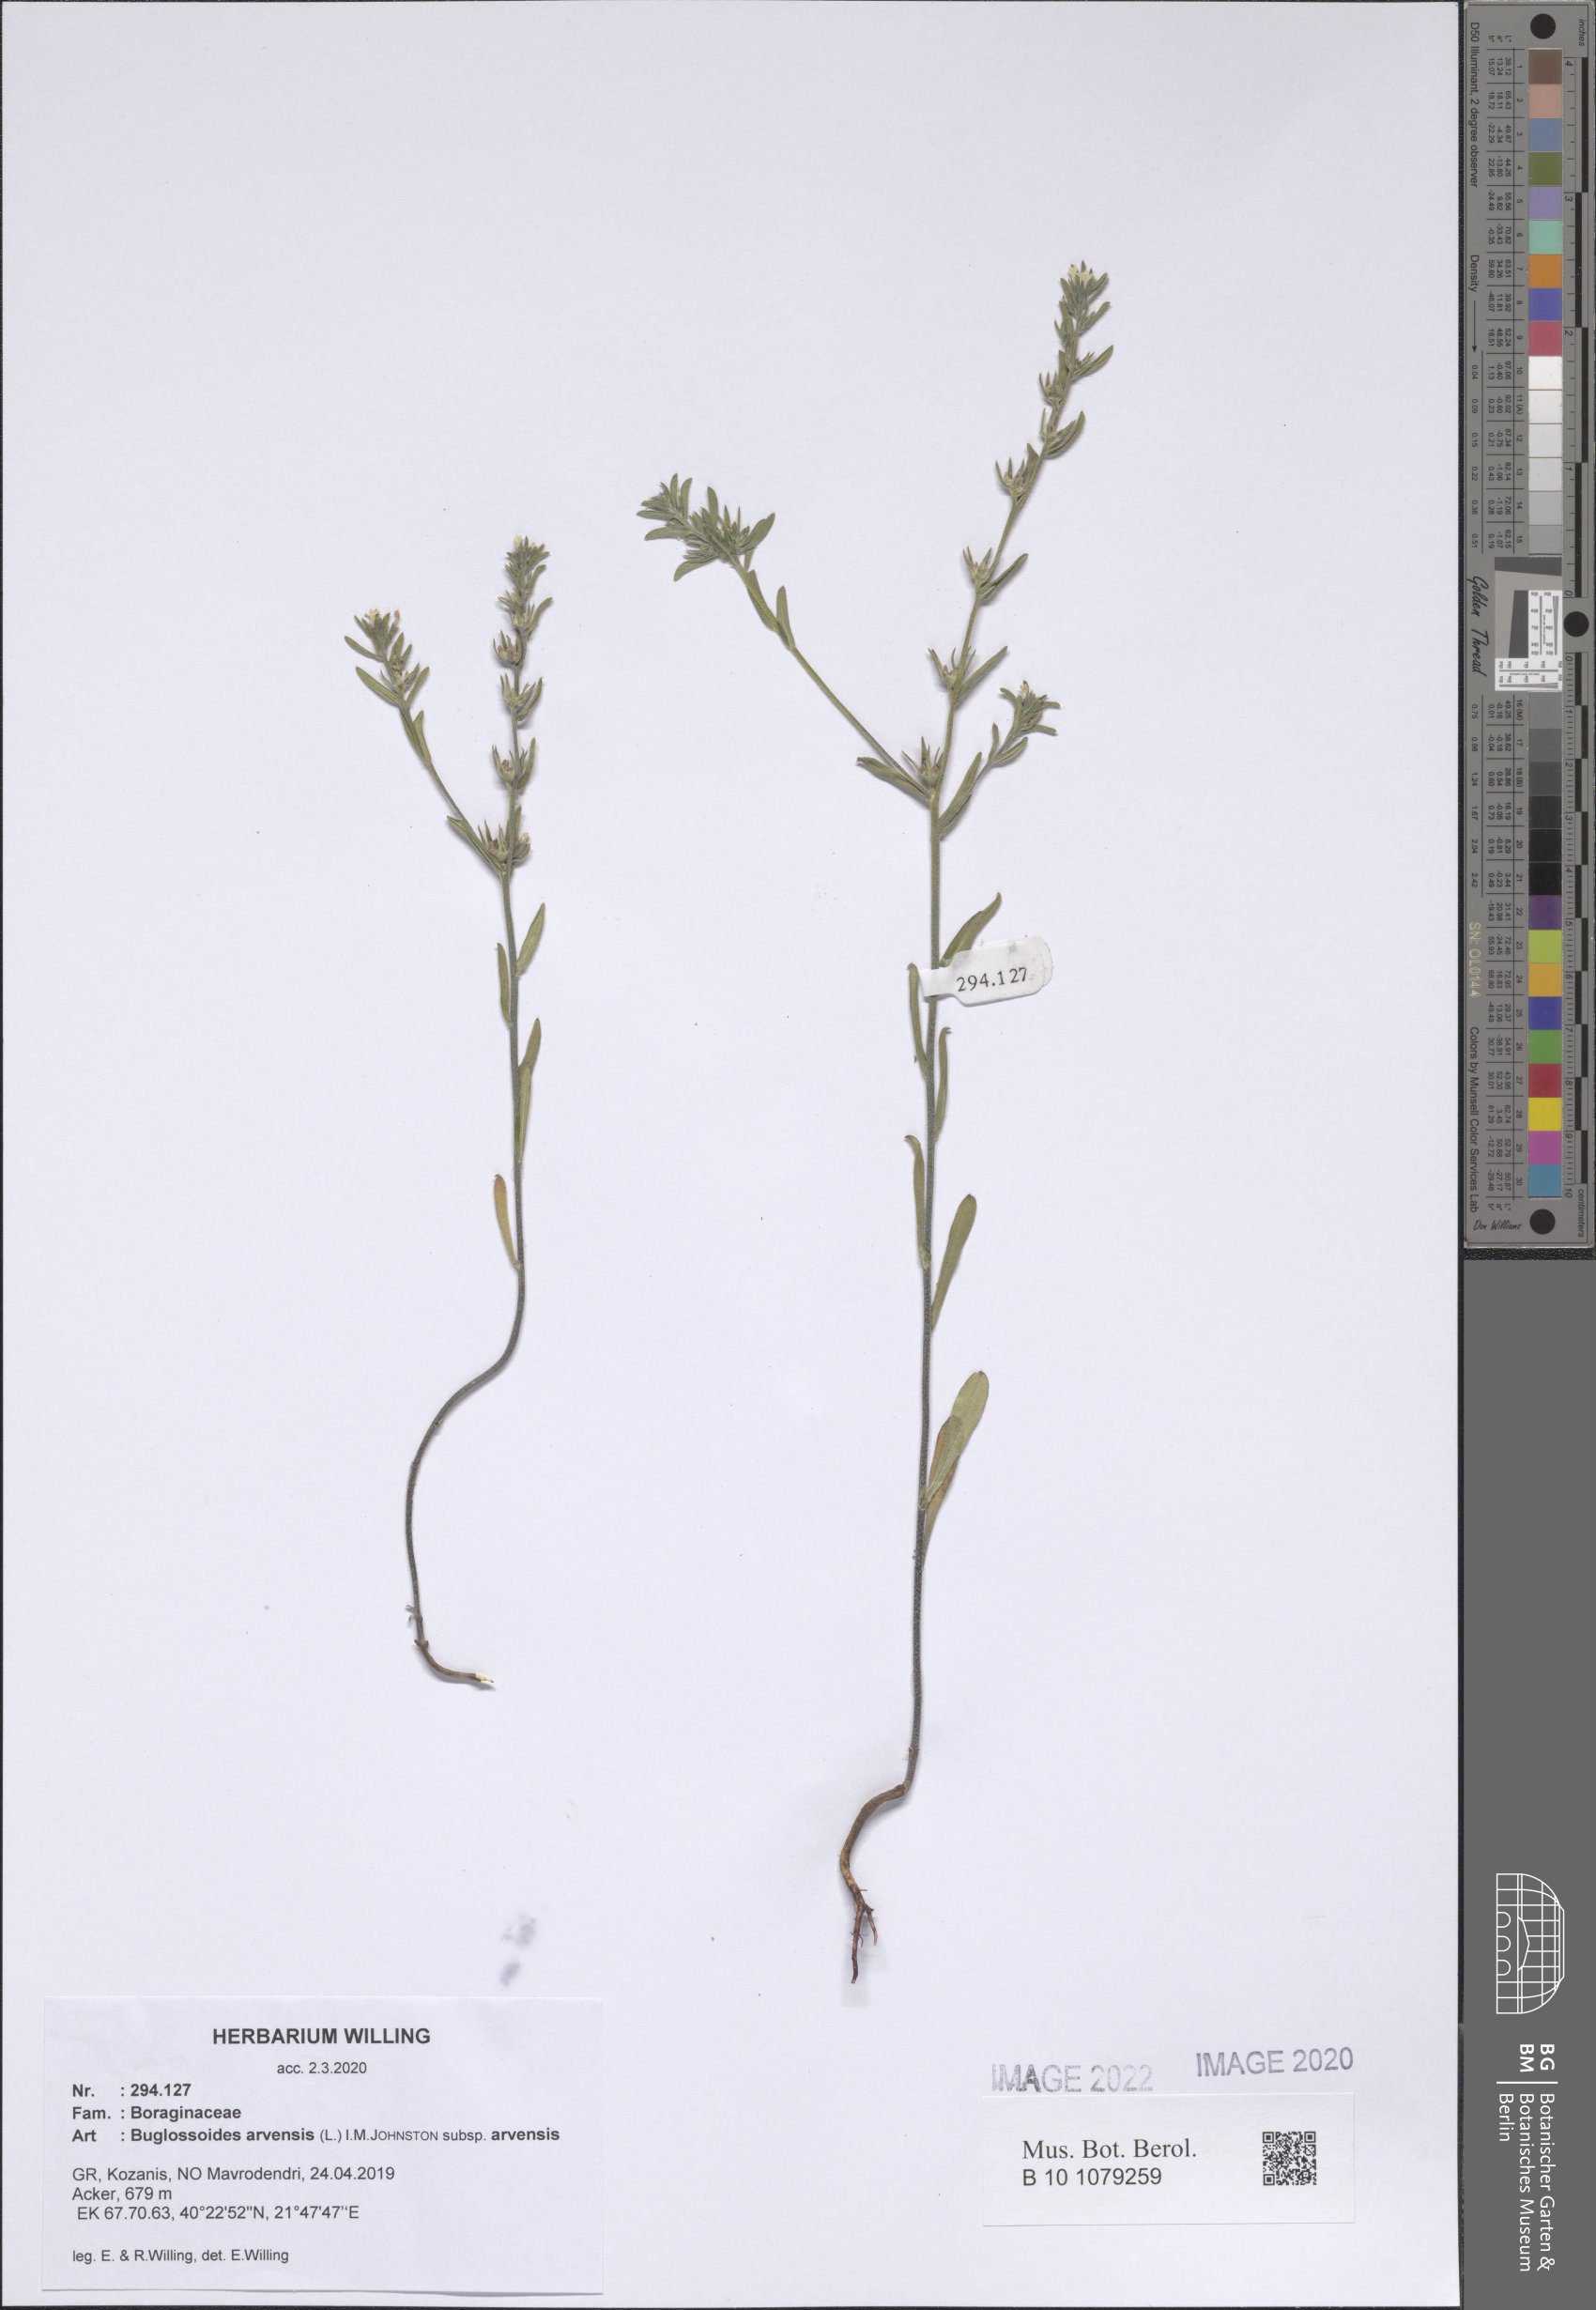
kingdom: Plantae
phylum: Tracheophyta
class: Magnoliopsida
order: Boraginales
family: Boraginaceae
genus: Buglossoides
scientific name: Buglossoides arvensis
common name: Corn gromwell
